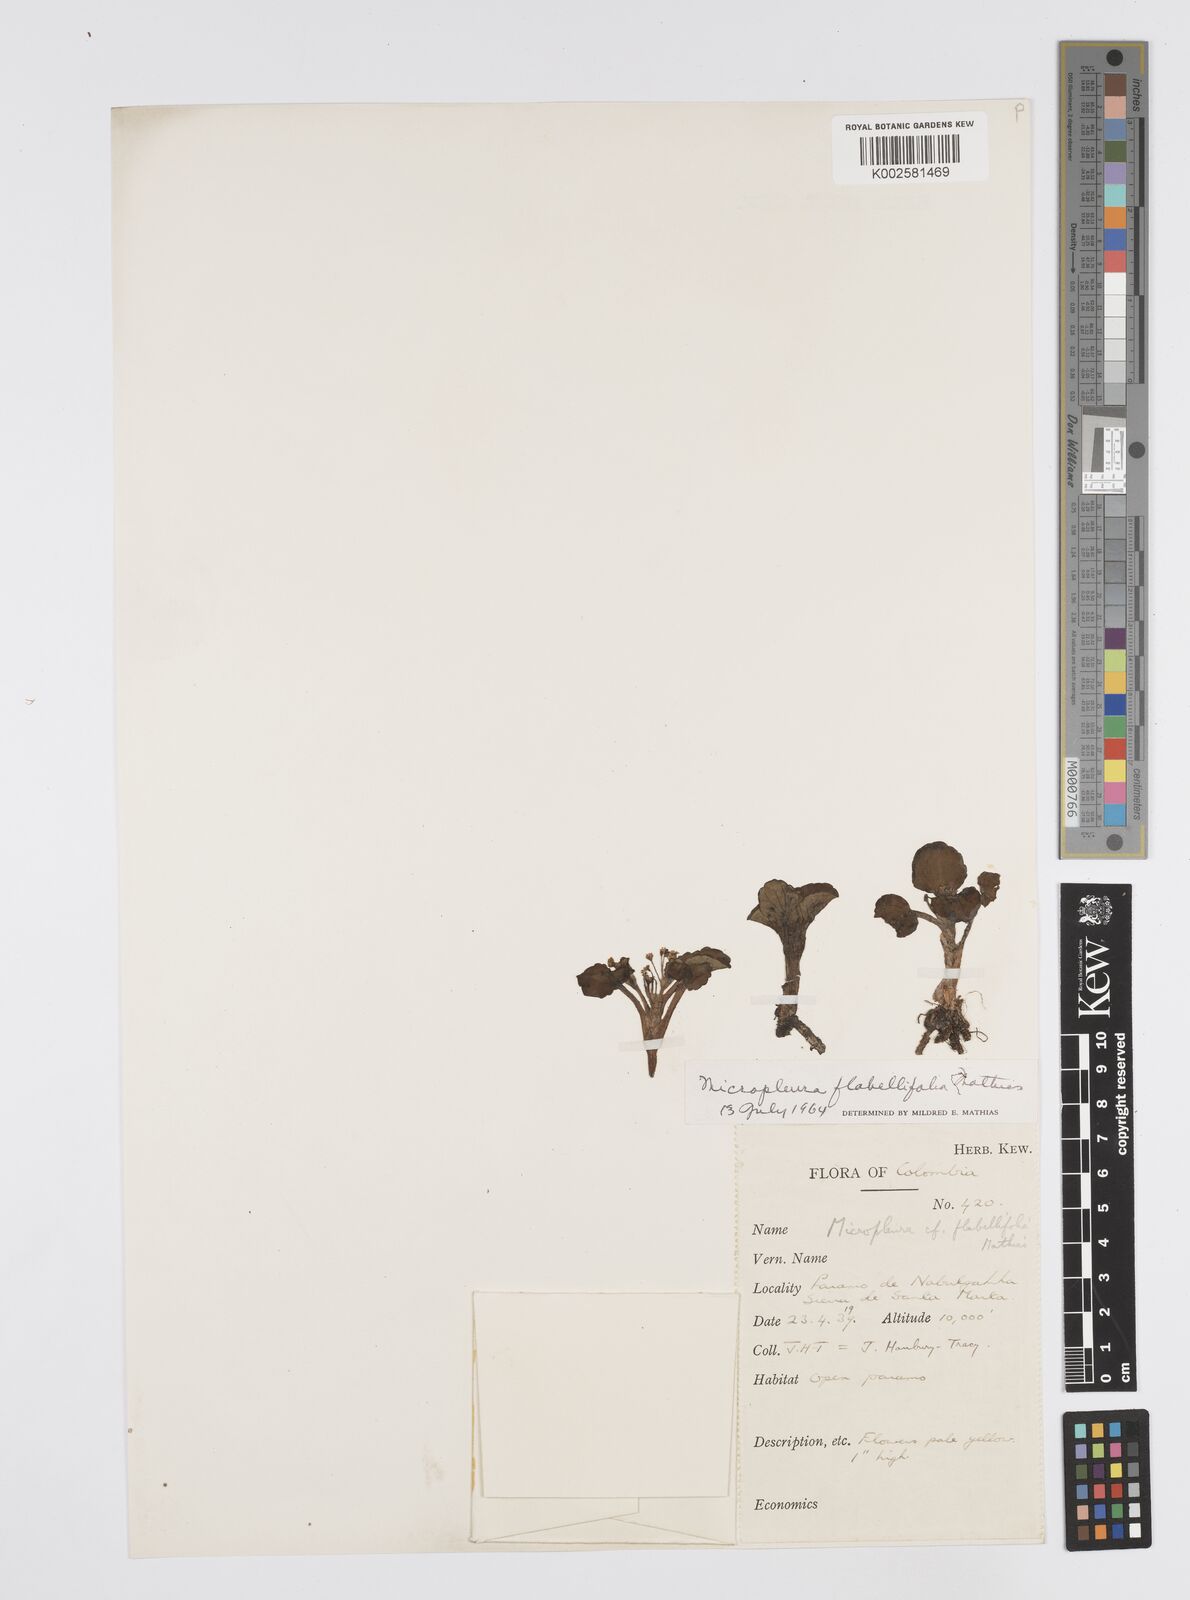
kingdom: Plantae
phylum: Tracheophyta
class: Magnoliopsida
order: Apiales
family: Apiaceae
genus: Centella
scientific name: Centella
